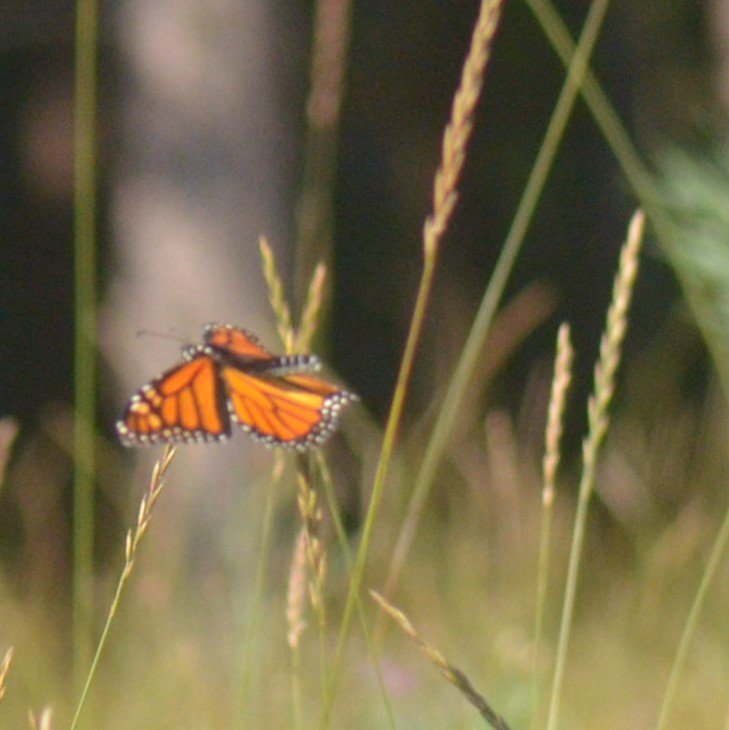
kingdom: Animalia
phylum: Arthropoda
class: Insecta
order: Lepidoptera
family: Nymphalidae
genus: Danaus
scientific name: Danaus plexippus
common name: Monarch
